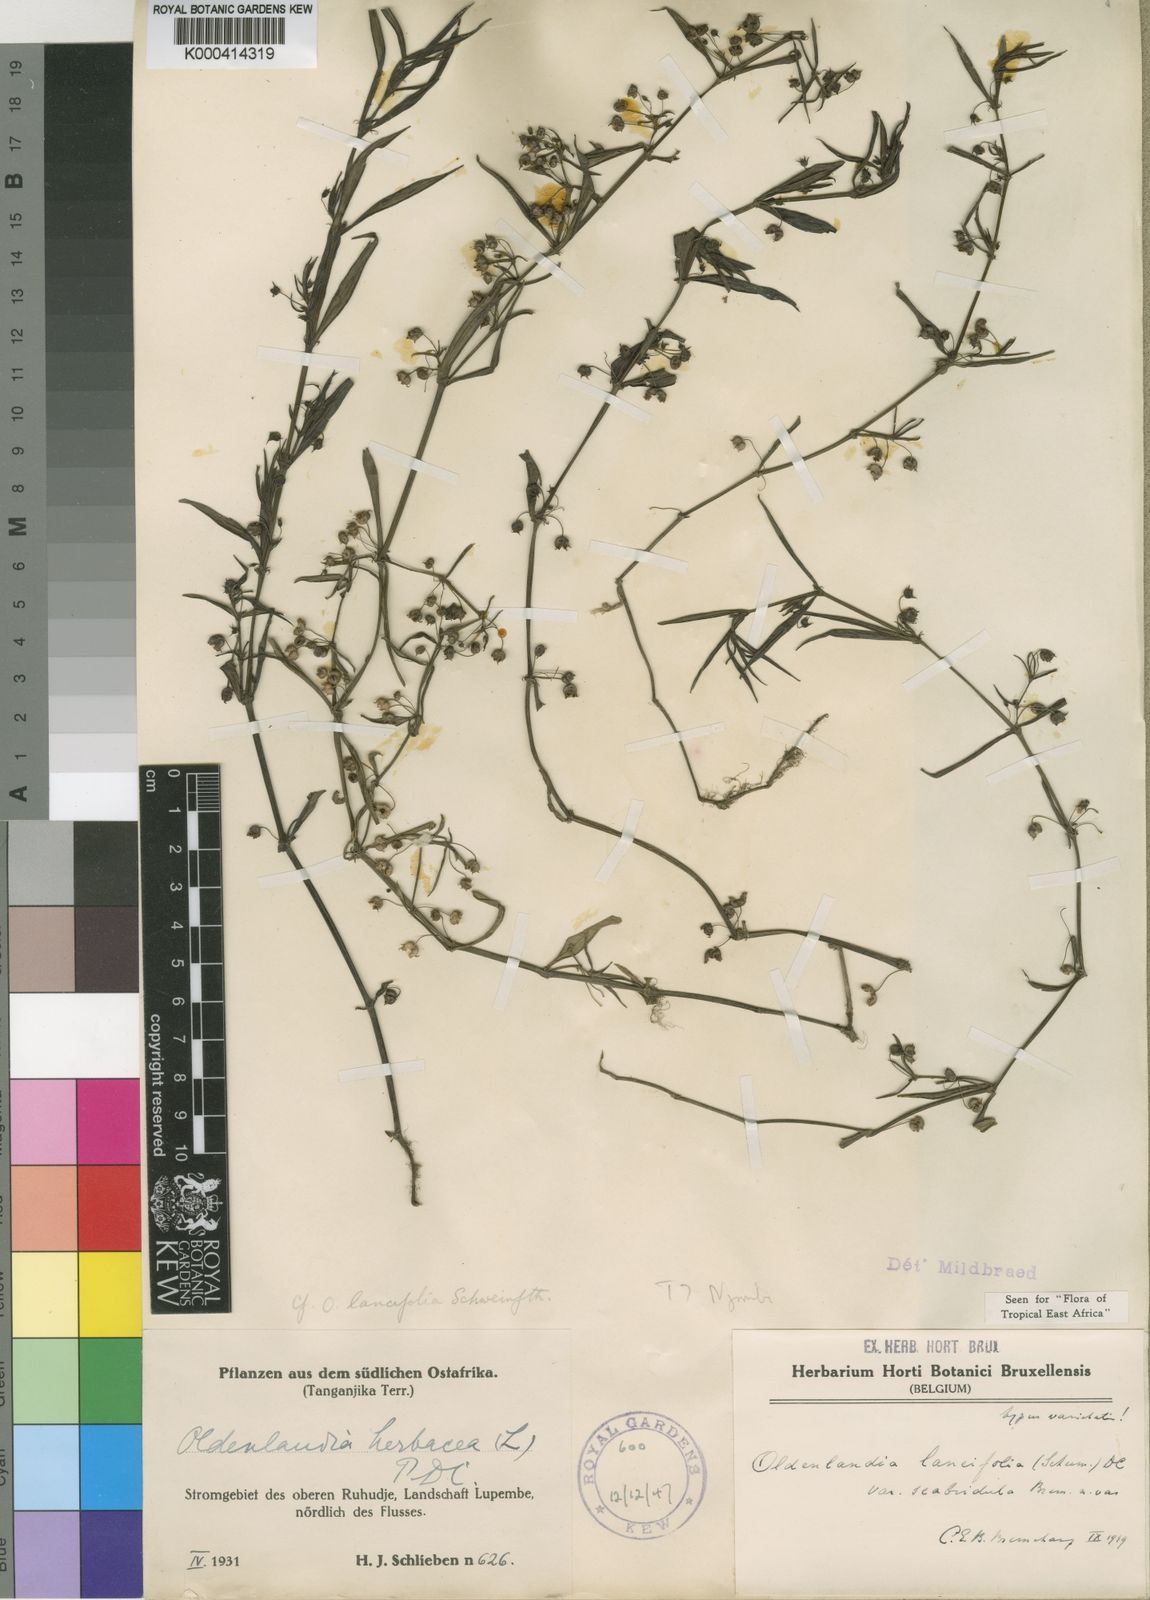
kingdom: Plantae
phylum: Tracheophyta
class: Magnoliopsida
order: Gentianales
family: Rubiaceae
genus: Oldenlandia
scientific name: Oldenlandia lancifolia
